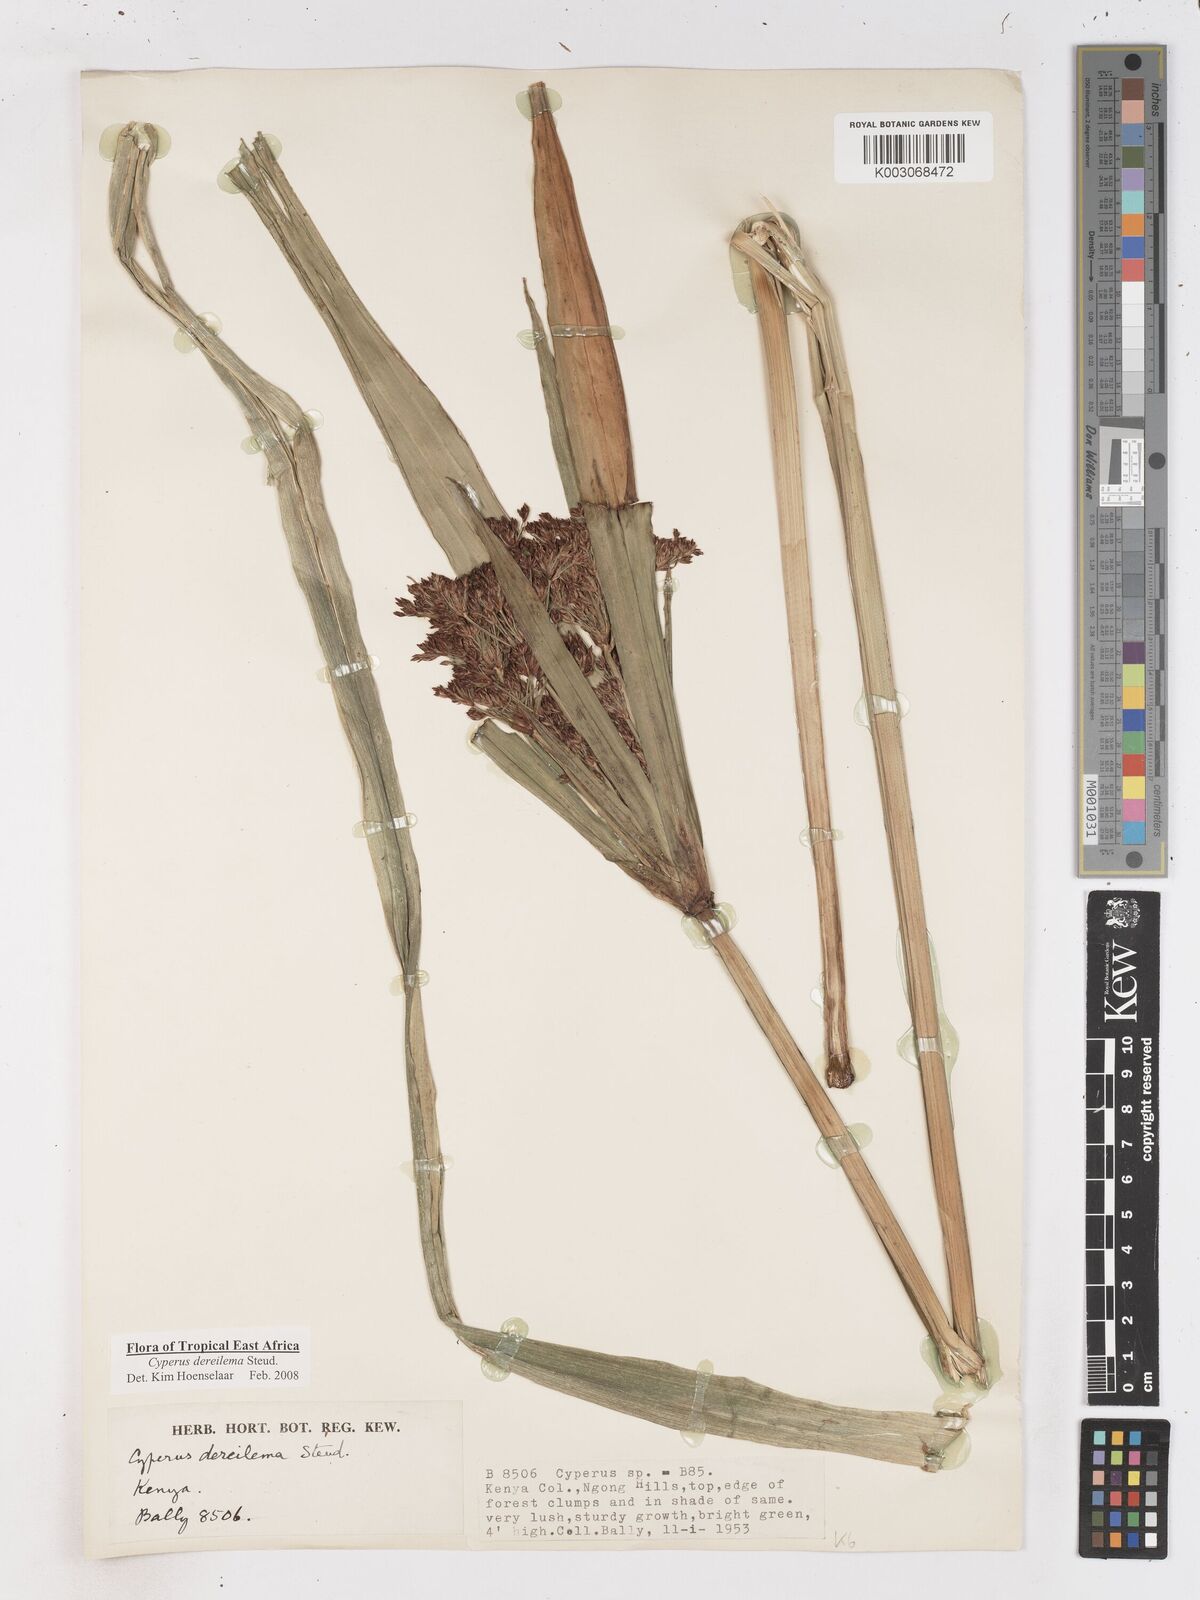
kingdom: Plantae
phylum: Tracheophyta
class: Liliopsida
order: Poales
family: Cyperaceae
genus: Cyperus
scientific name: Cyperus derreilema
